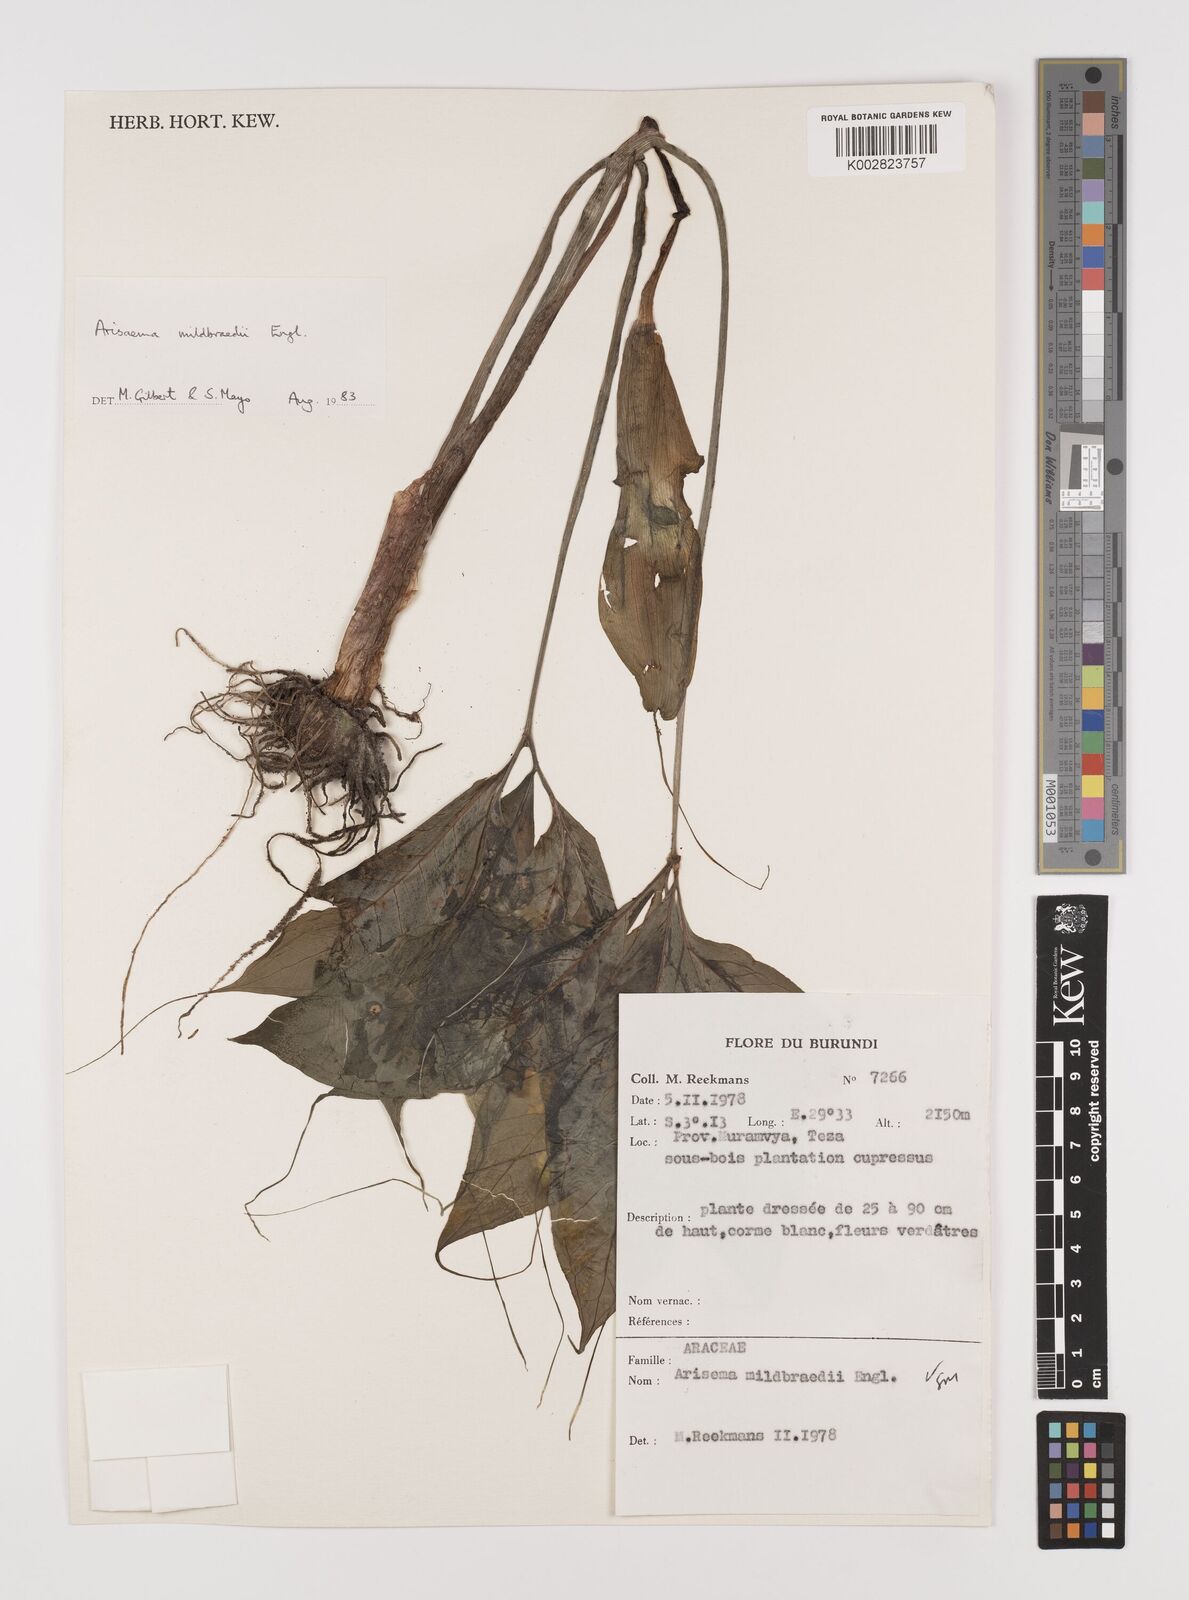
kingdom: Plantae
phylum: Tracheophyta
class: Liliopsida
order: Alismatales
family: Araceae
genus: Arisaema
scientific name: Arisaema mildbraedii
